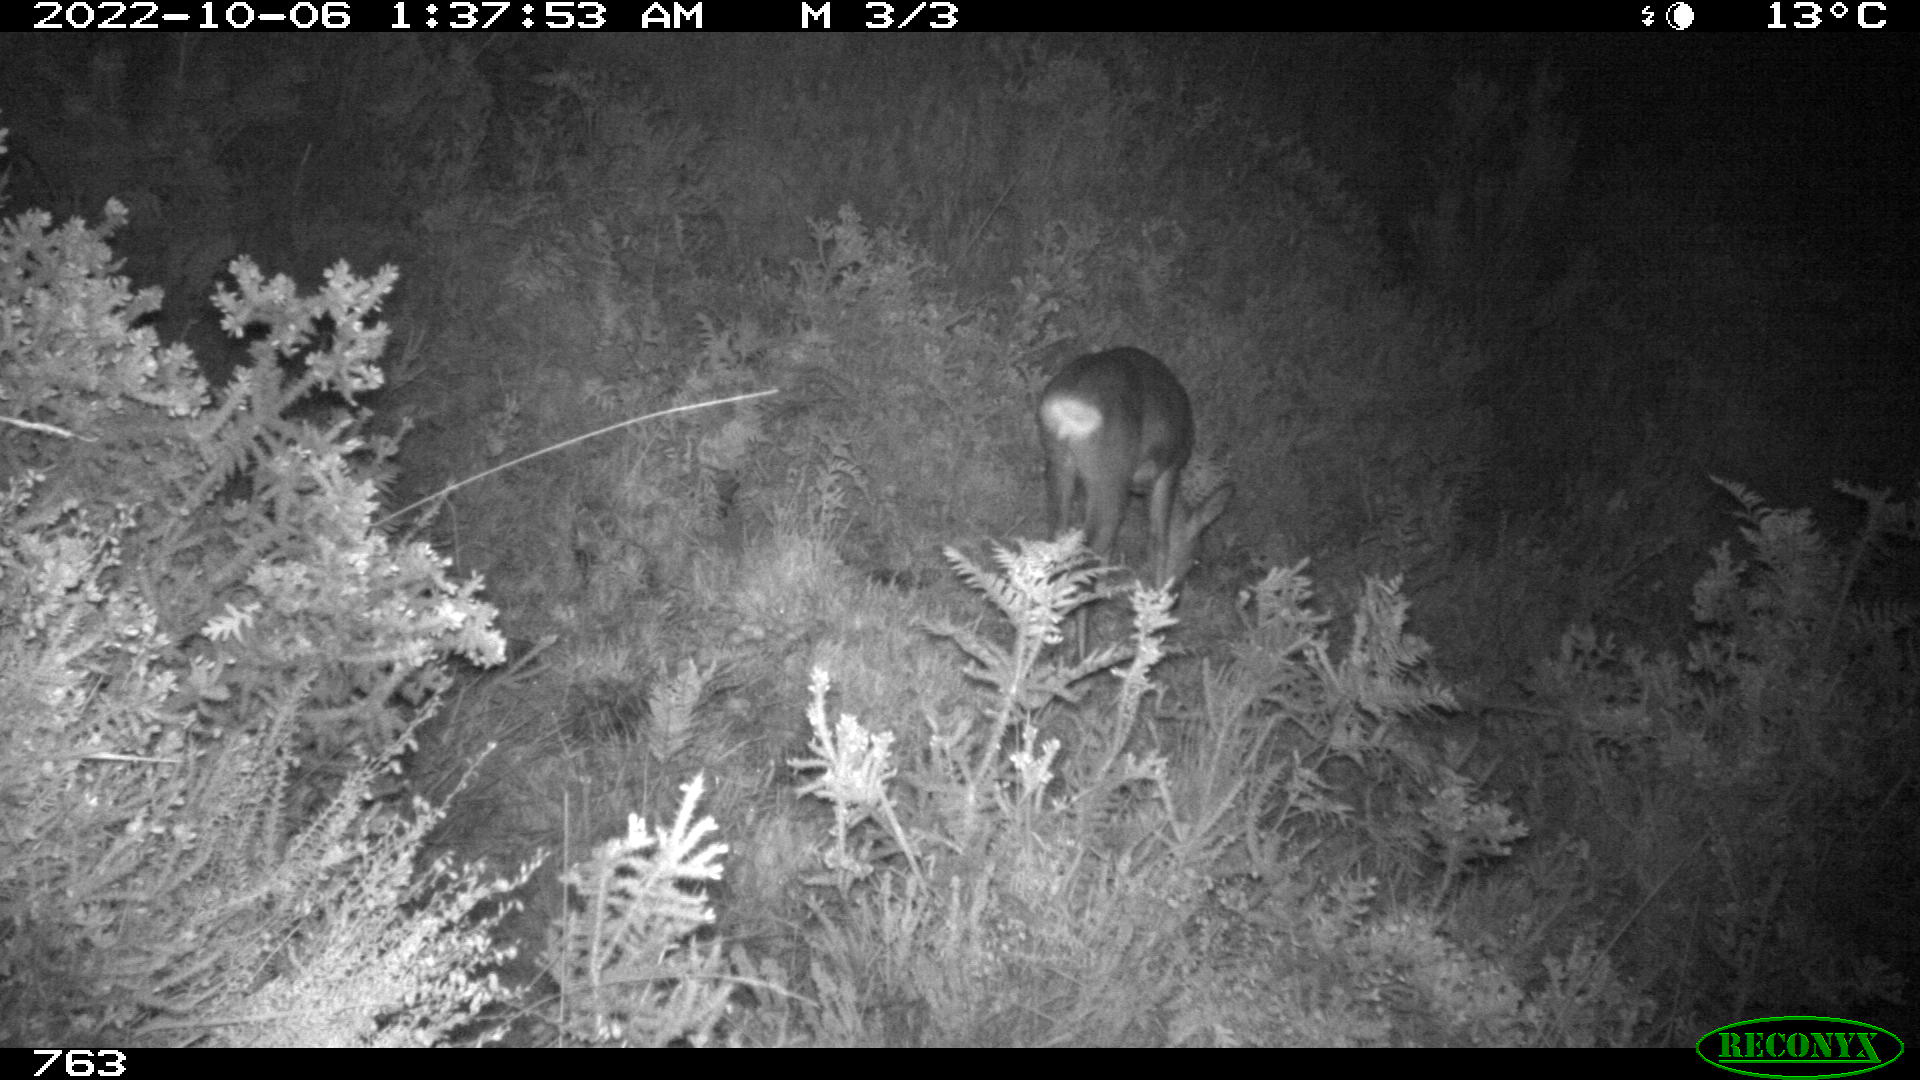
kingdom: Animalia
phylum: Chordata
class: Mammalia
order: Artiodactyla
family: Cervidae
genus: Capreolus
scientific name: Capreolus capreolus
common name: Western roe deer
